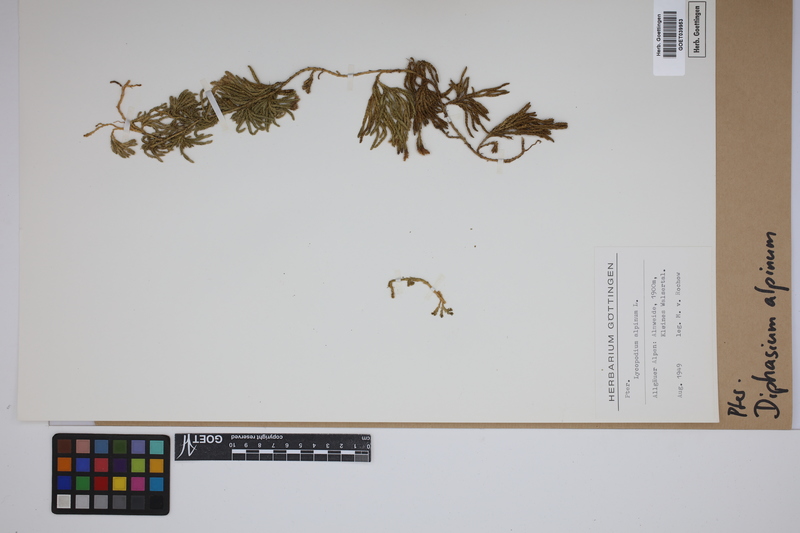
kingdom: Plantae
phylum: Tracheophyta
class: Lycopodiopsida
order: Lycopodiales
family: Lycopodiaceae
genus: Diphasiastrum
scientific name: Diphasiastrum alpinum
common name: Alpine clubmoss
